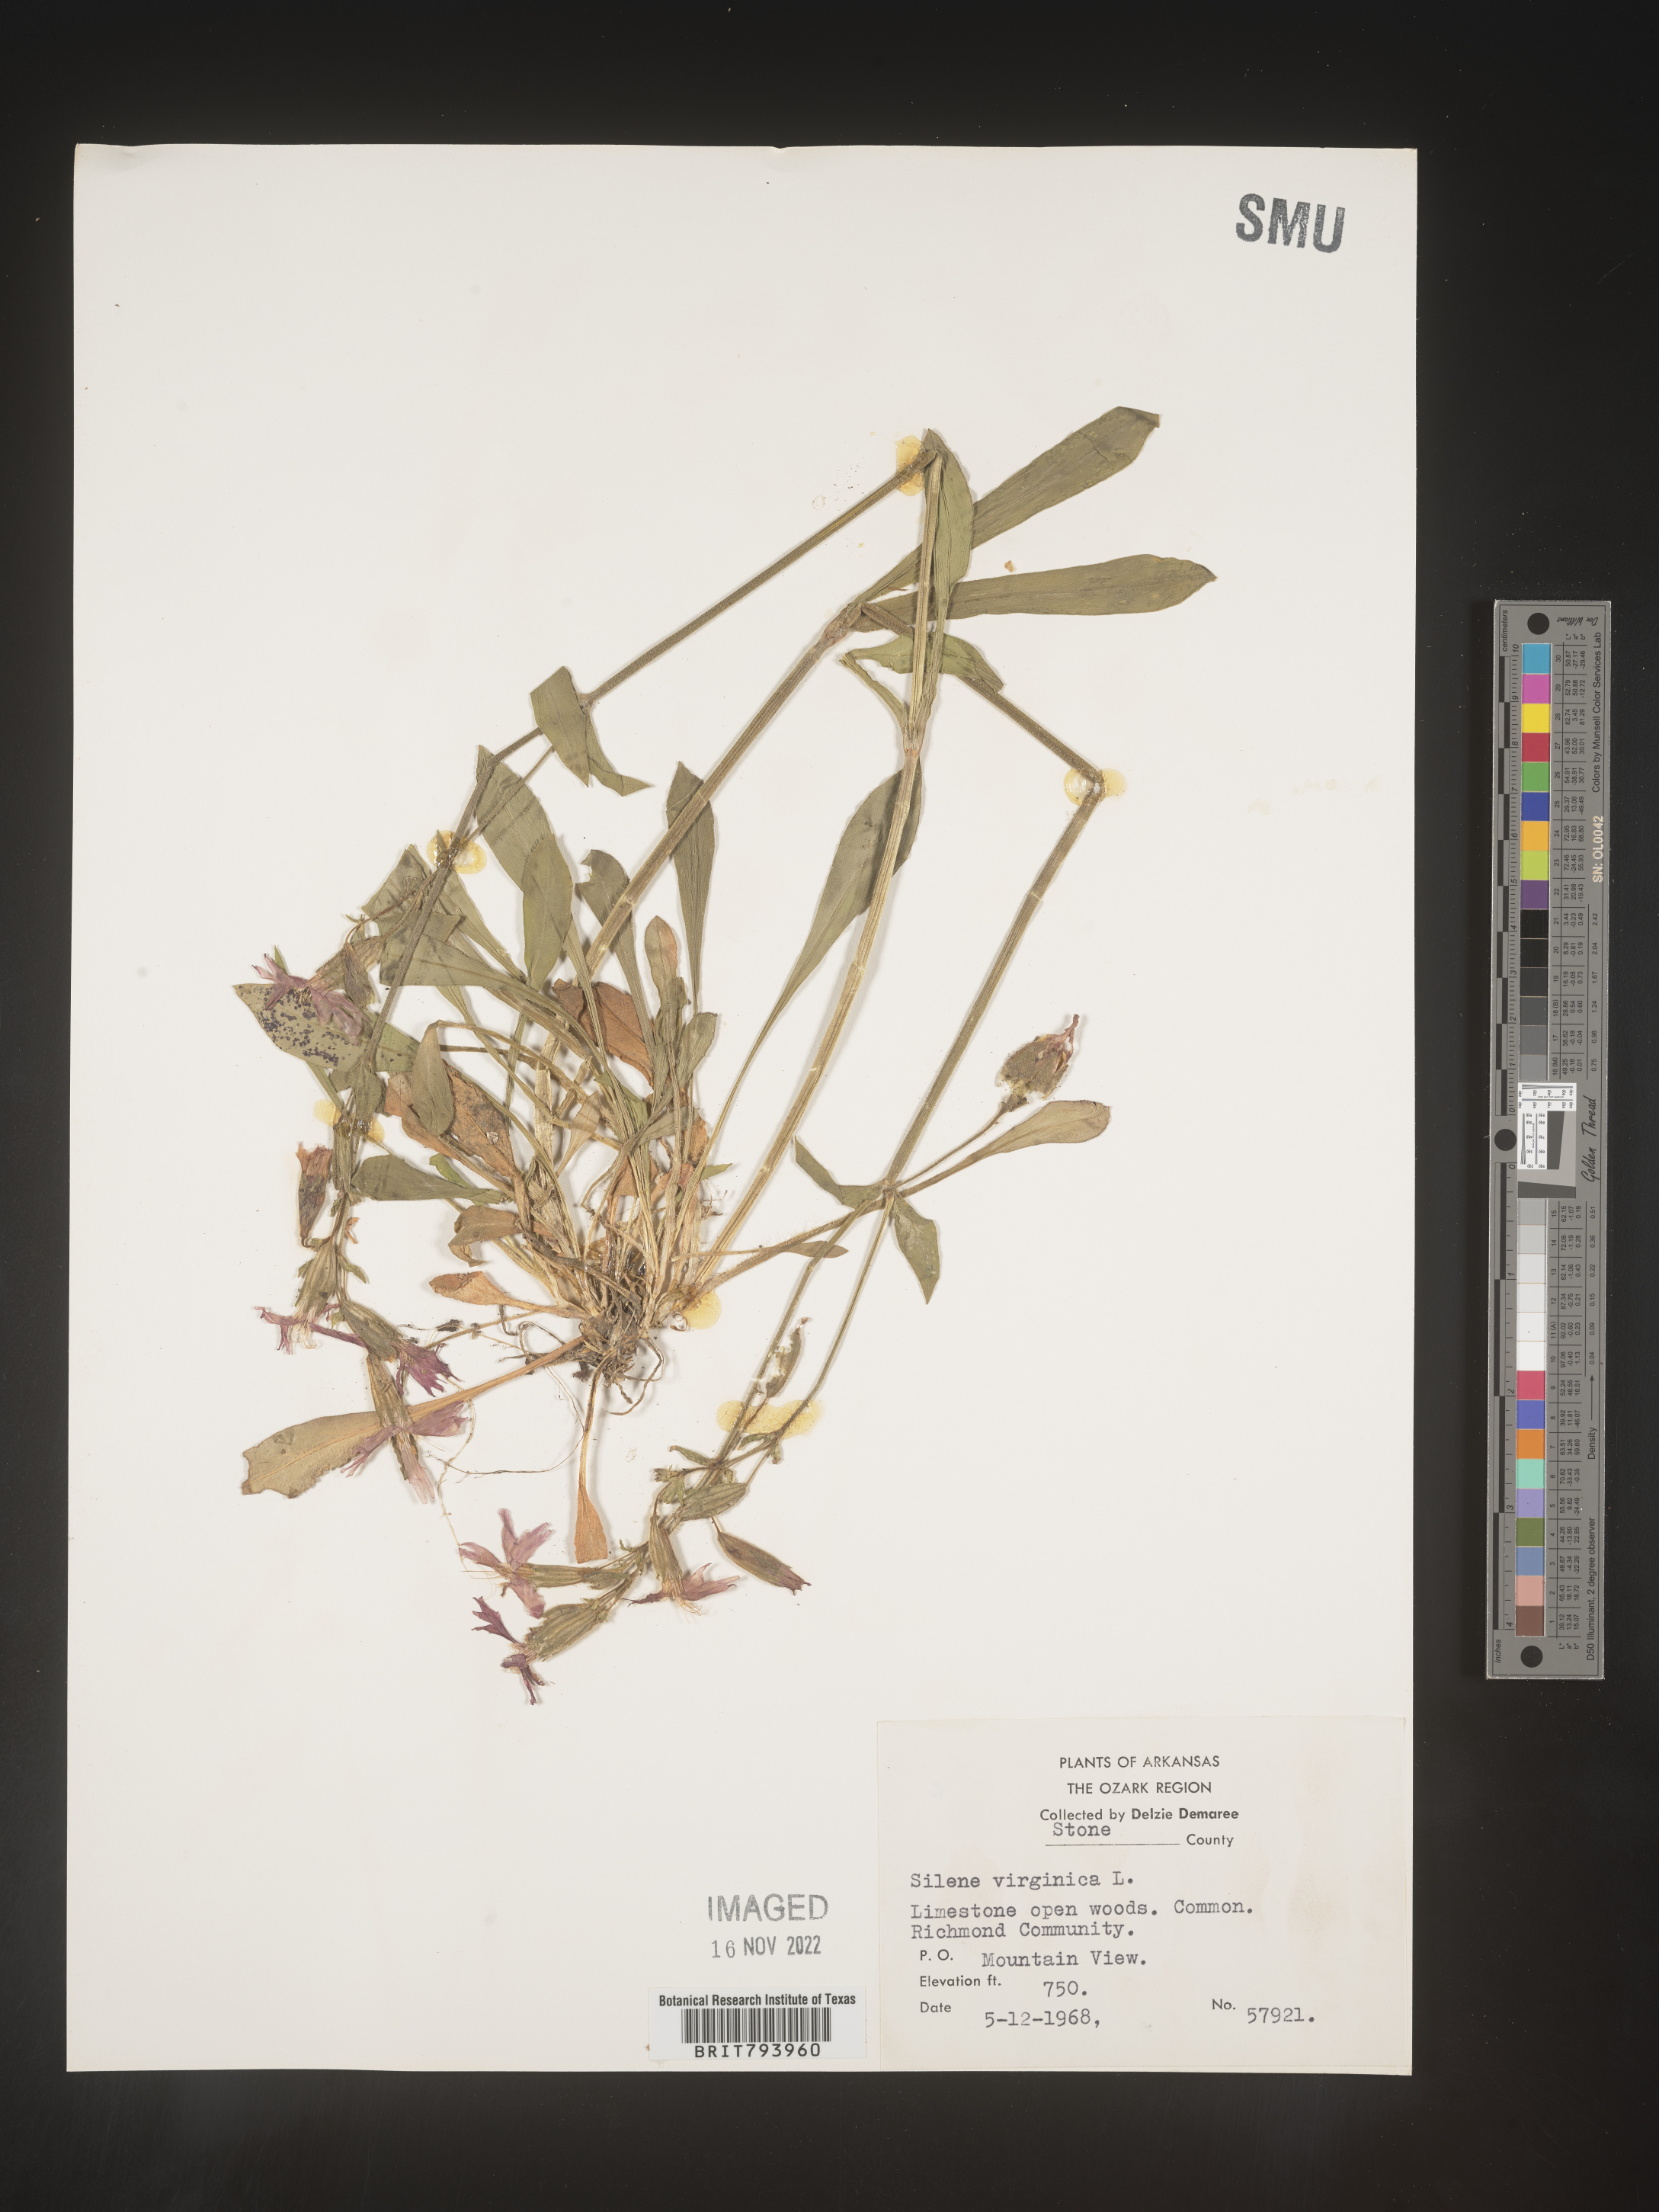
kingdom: Plantae
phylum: Tracheophyta
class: Magnoliopsida
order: Caryophyllales
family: Caryophyllaceae
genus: Silene
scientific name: Silene virginica
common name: Fire-pink
